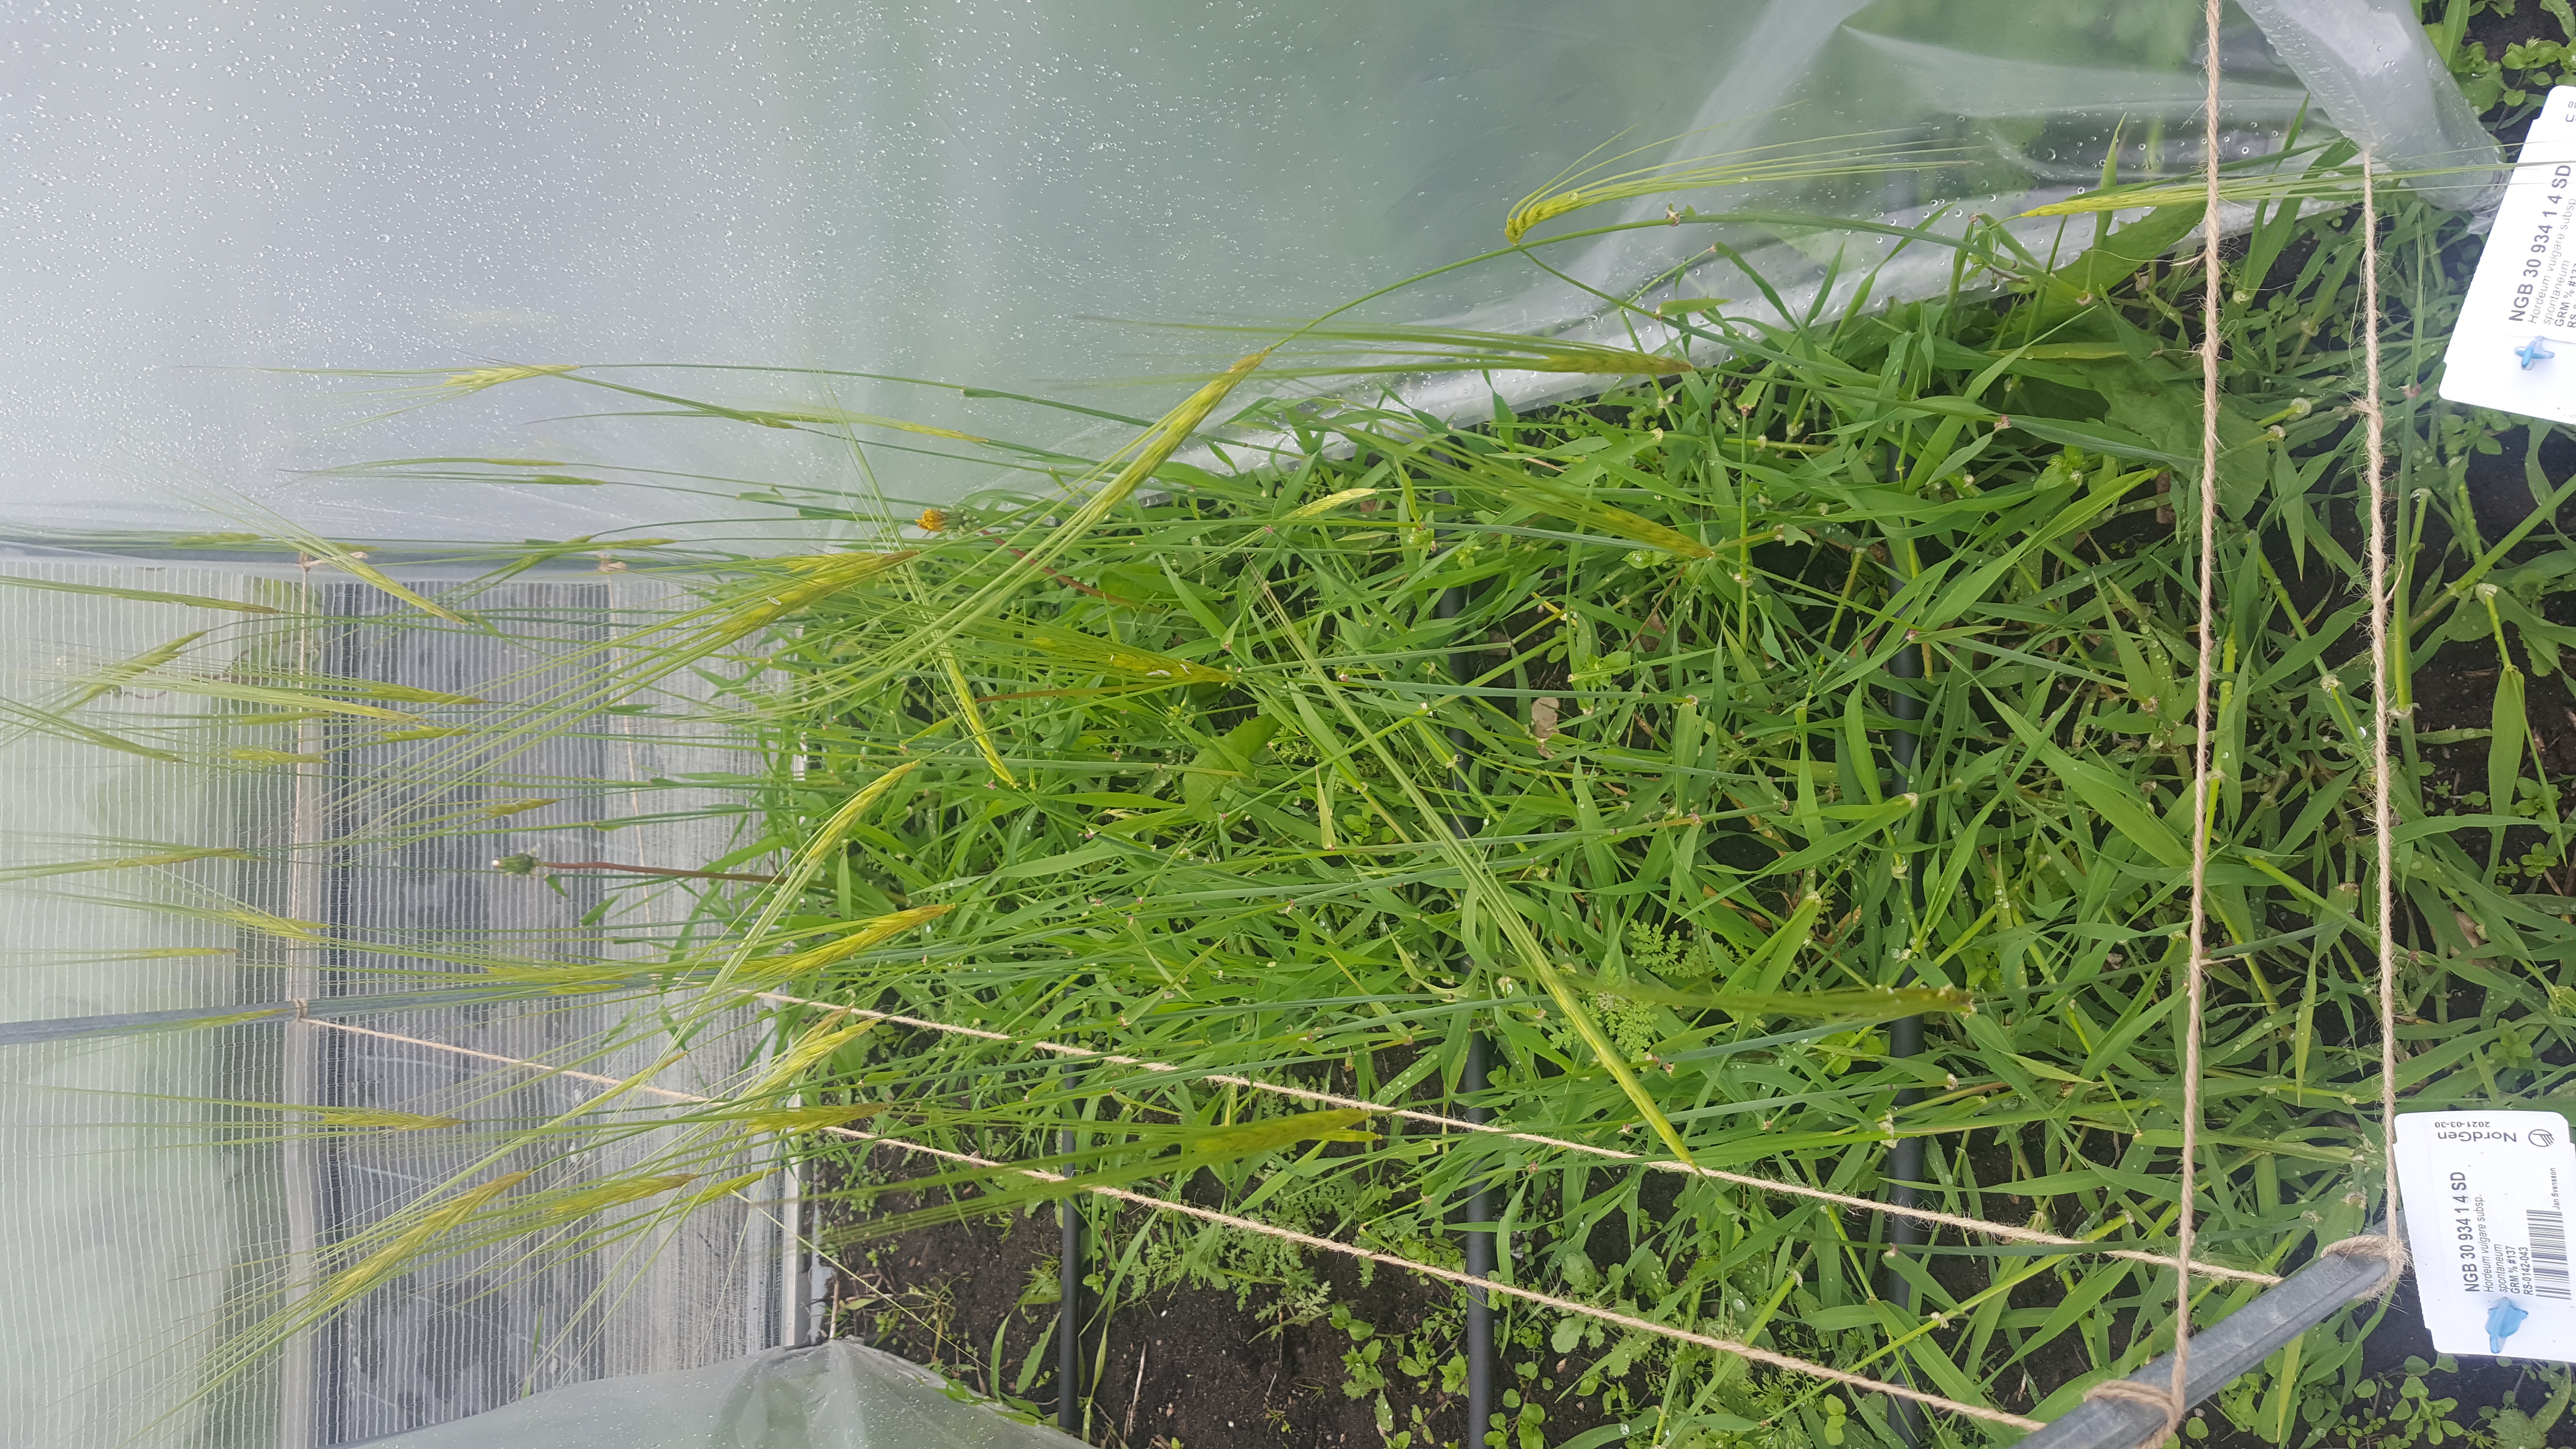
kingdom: Plantae
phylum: Tracheophyta
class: Liliopsida
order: Poales
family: Poaceae
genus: Hordeum
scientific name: Hordeum spontaneum
